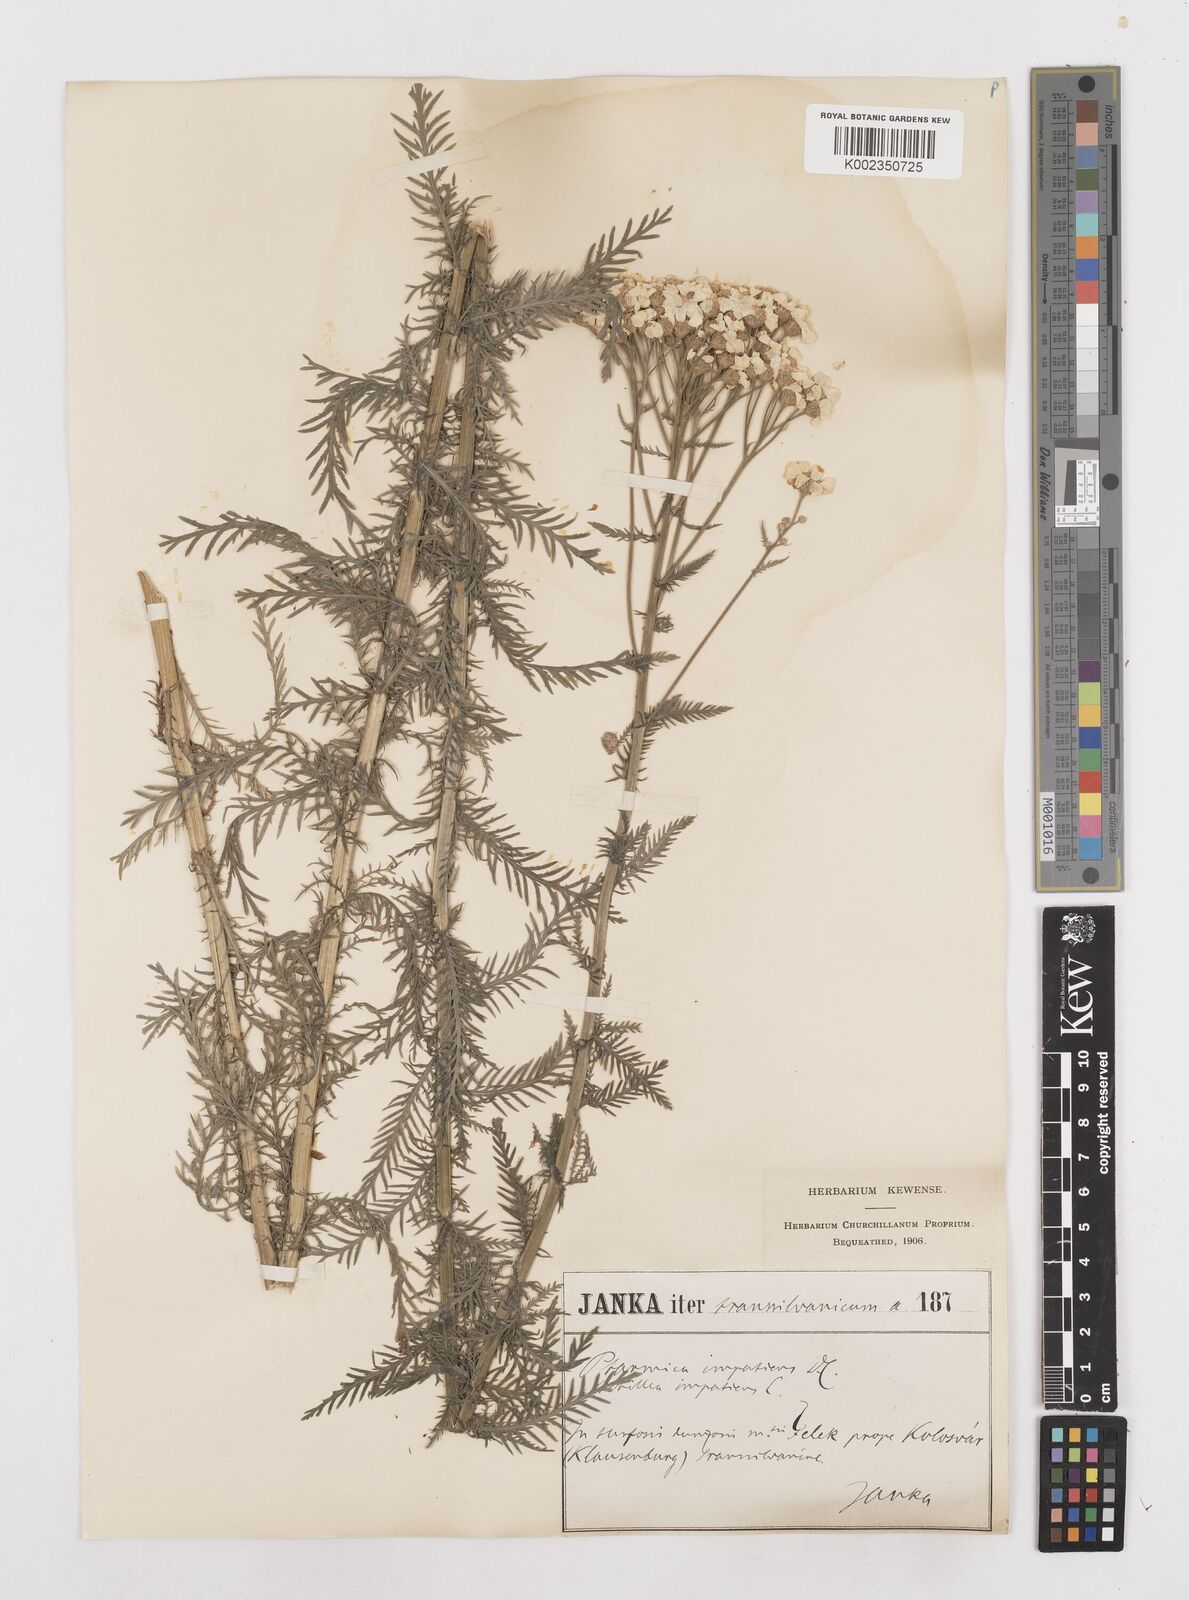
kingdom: Plantae
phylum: Tracheophyta
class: Magnoliopsida
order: Asterales
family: Asteraceae
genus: Achillea
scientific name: Achillea impatiens
